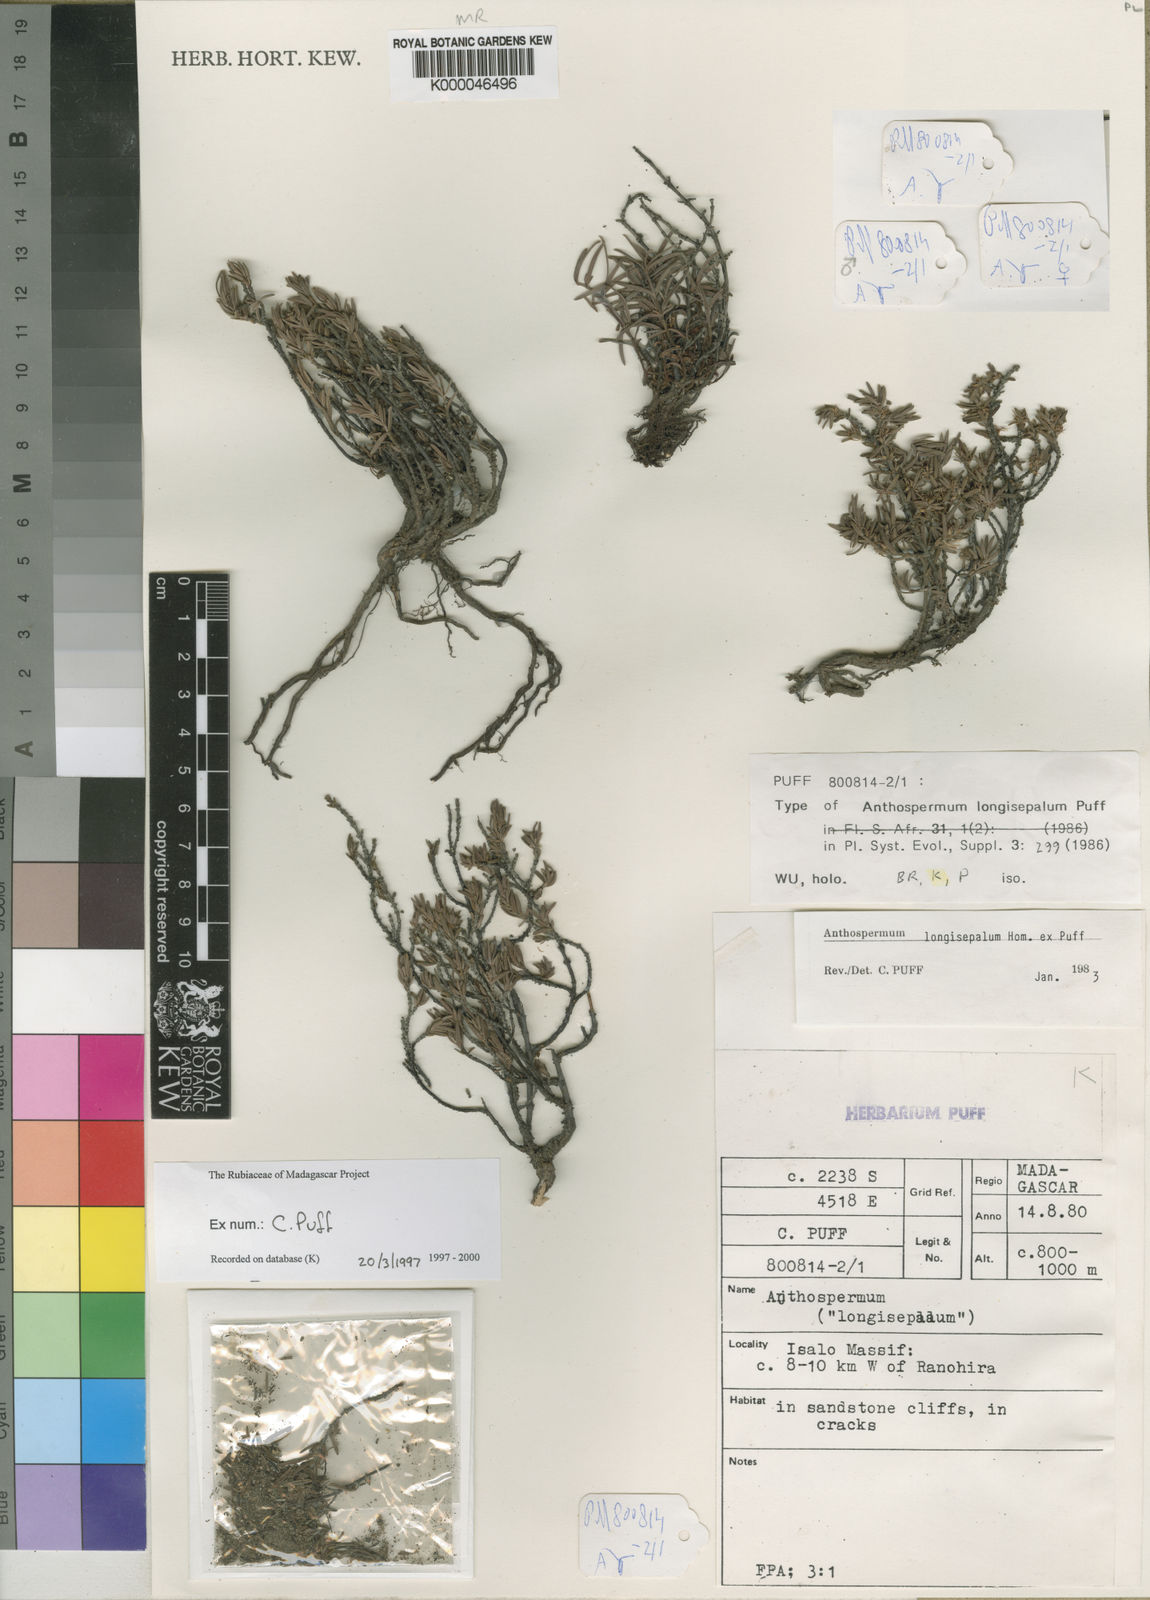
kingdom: Plantae
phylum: Tracheophyta
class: Magnoliopsida
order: Gentianales
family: Rubiaceae
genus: Anthospermum
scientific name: Anthospermum longisepalum
